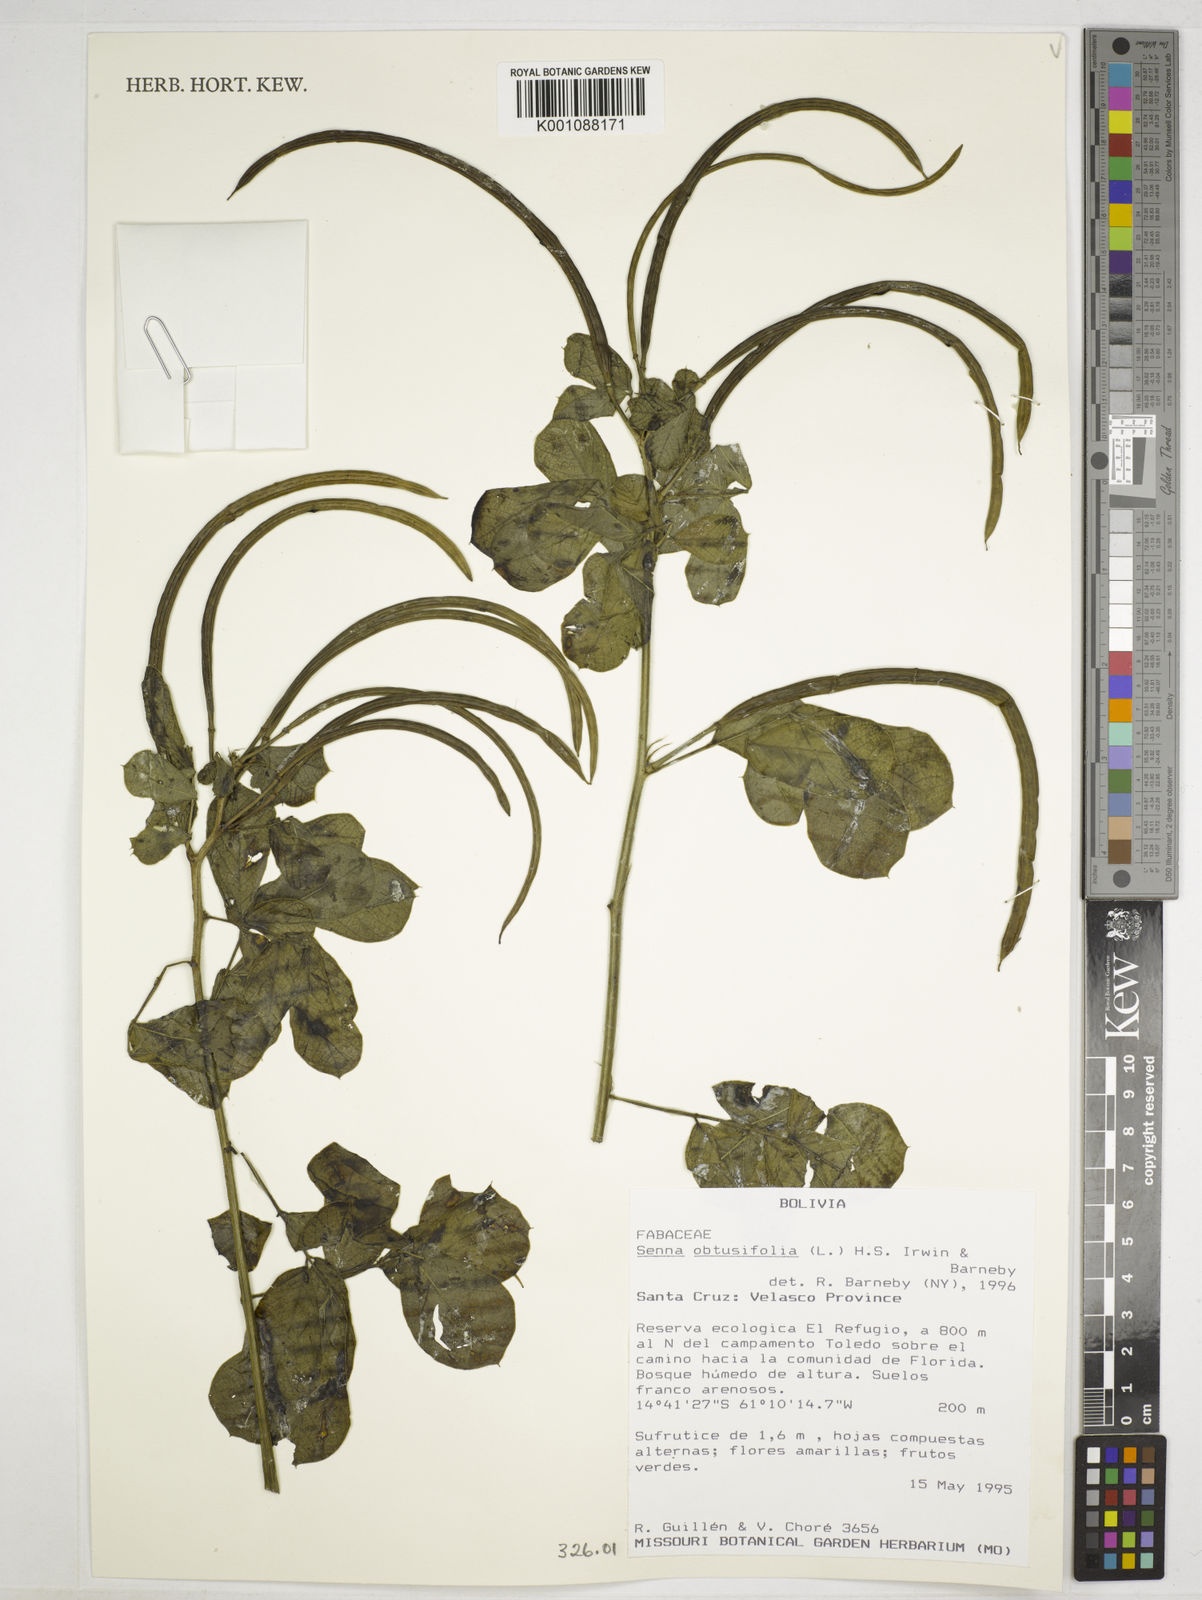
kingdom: Plantae
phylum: Tracheophyta
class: Magnoliopsida
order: Fabales
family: Fabaceae
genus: Senna
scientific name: Senna obtusifolia
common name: Java-bean
